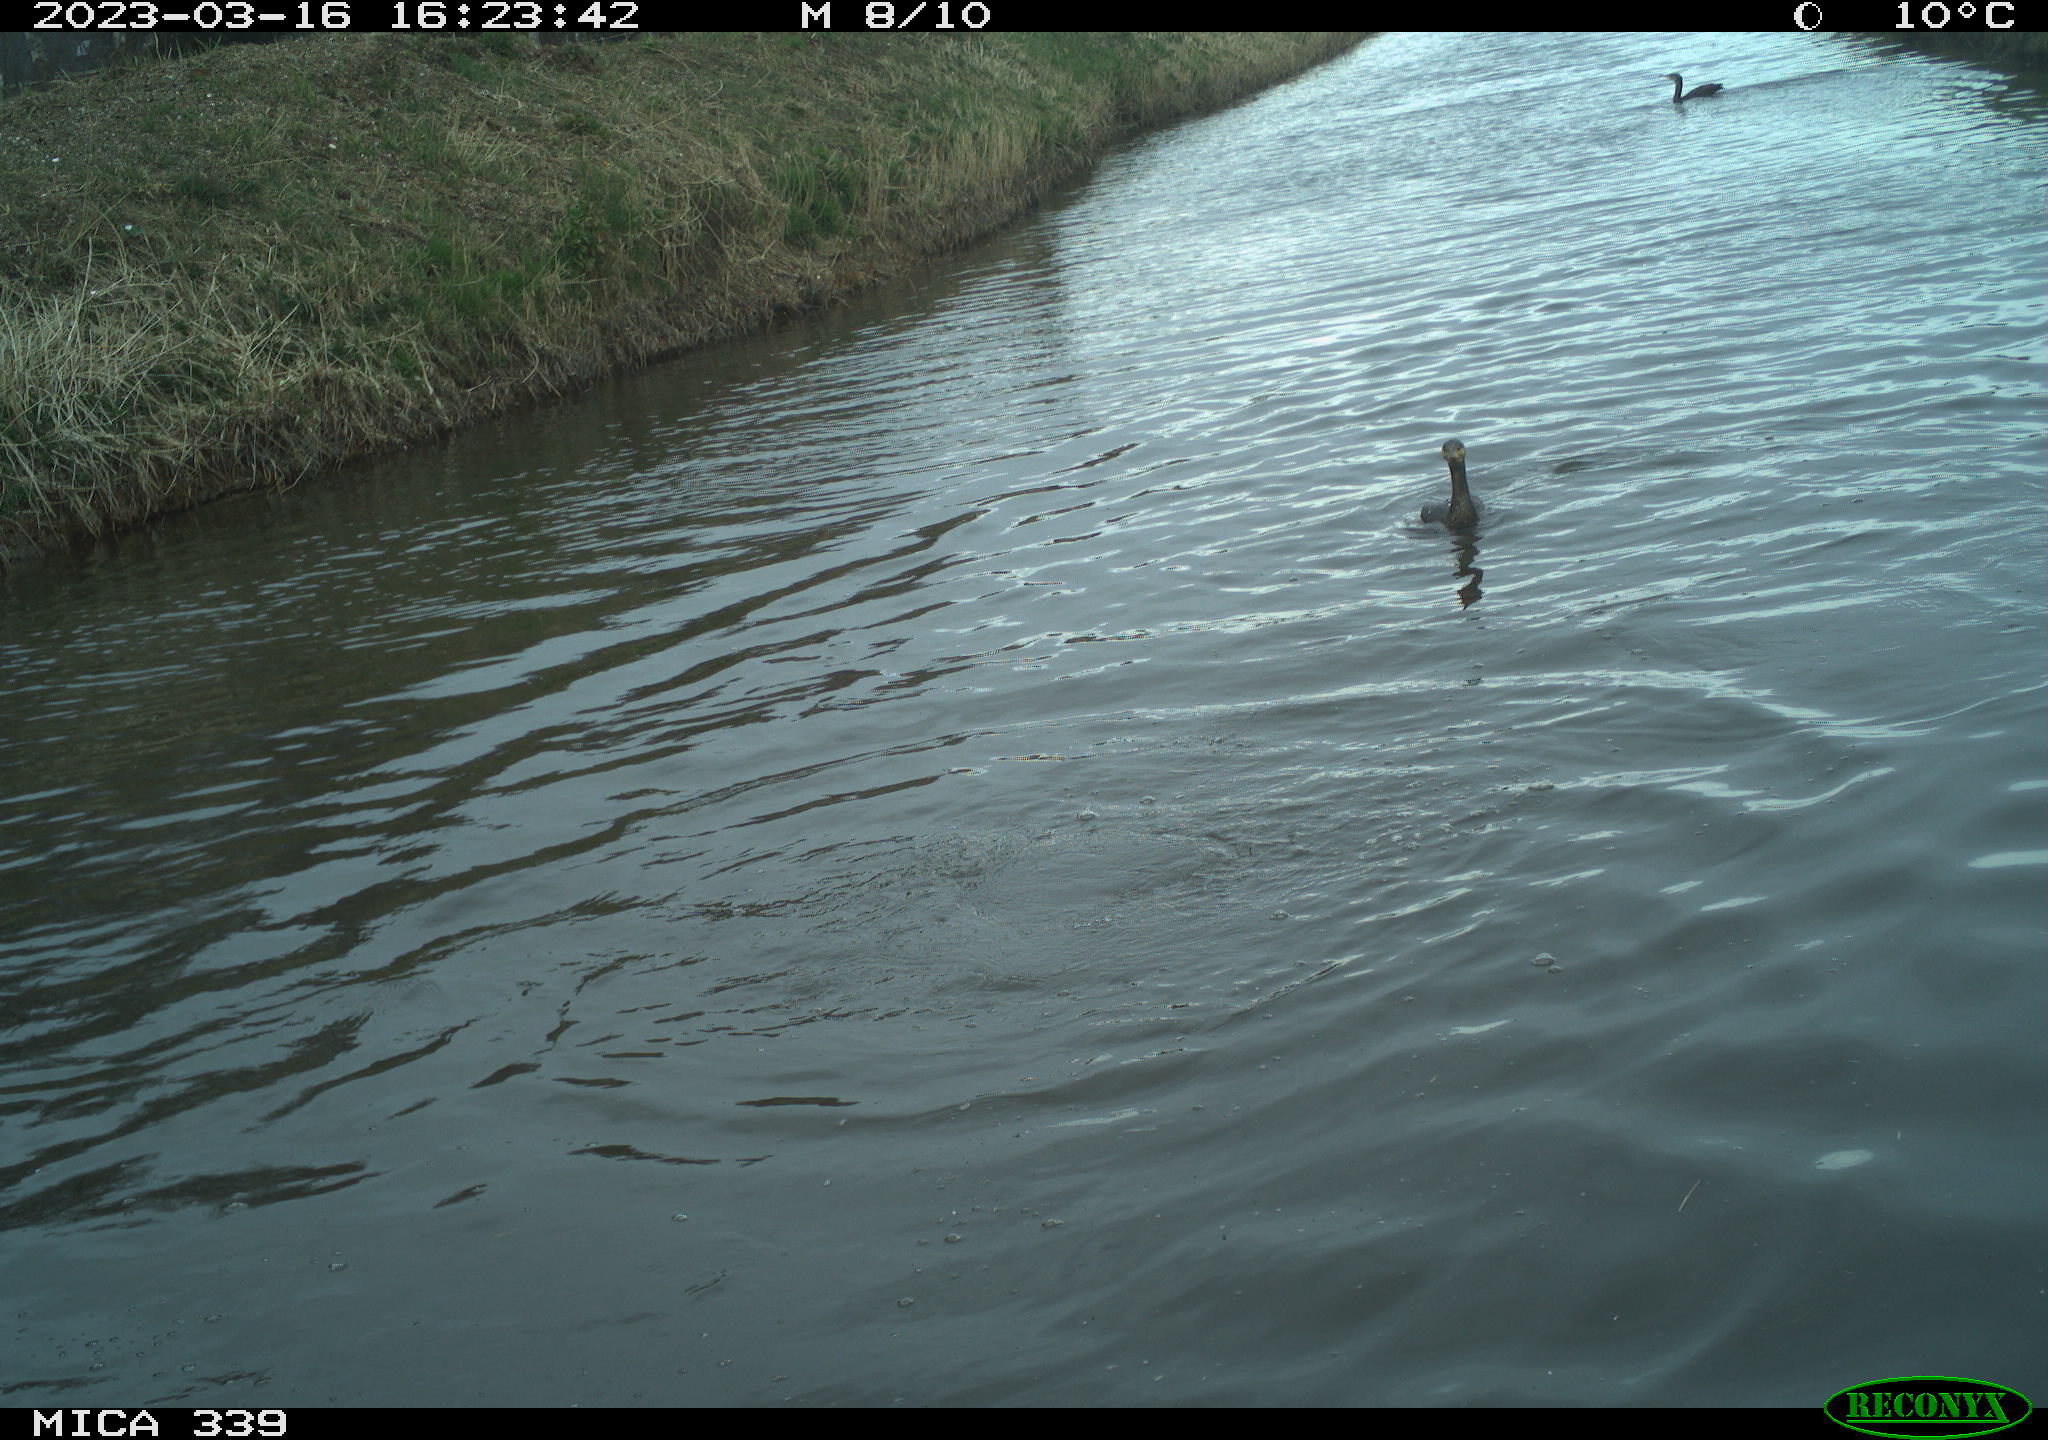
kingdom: Animalia
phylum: Chordata
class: Aves
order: Anseriformes
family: Anatidae
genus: Anas
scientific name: Anas
